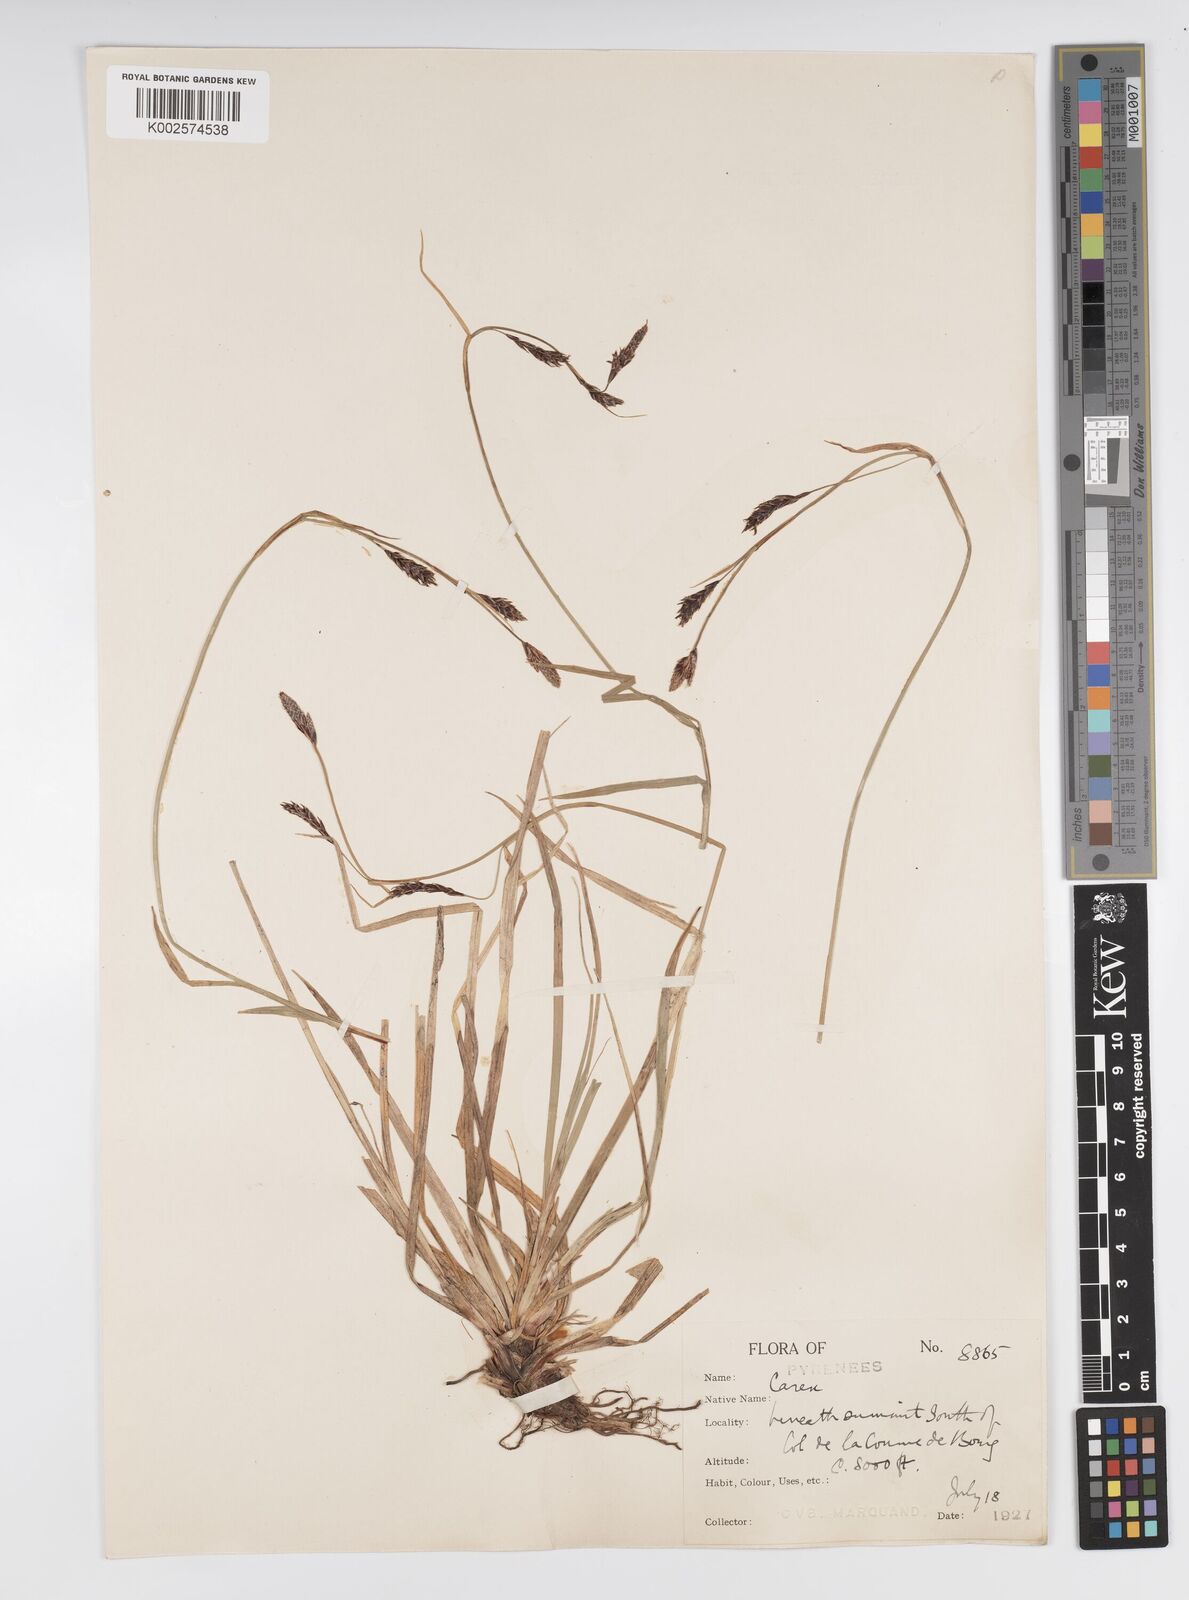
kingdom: Plantae
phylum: Tracheophyta
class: Liliopsida
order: Poales
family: Cyperaceae
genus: Carex
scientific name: Carex sempervirens
